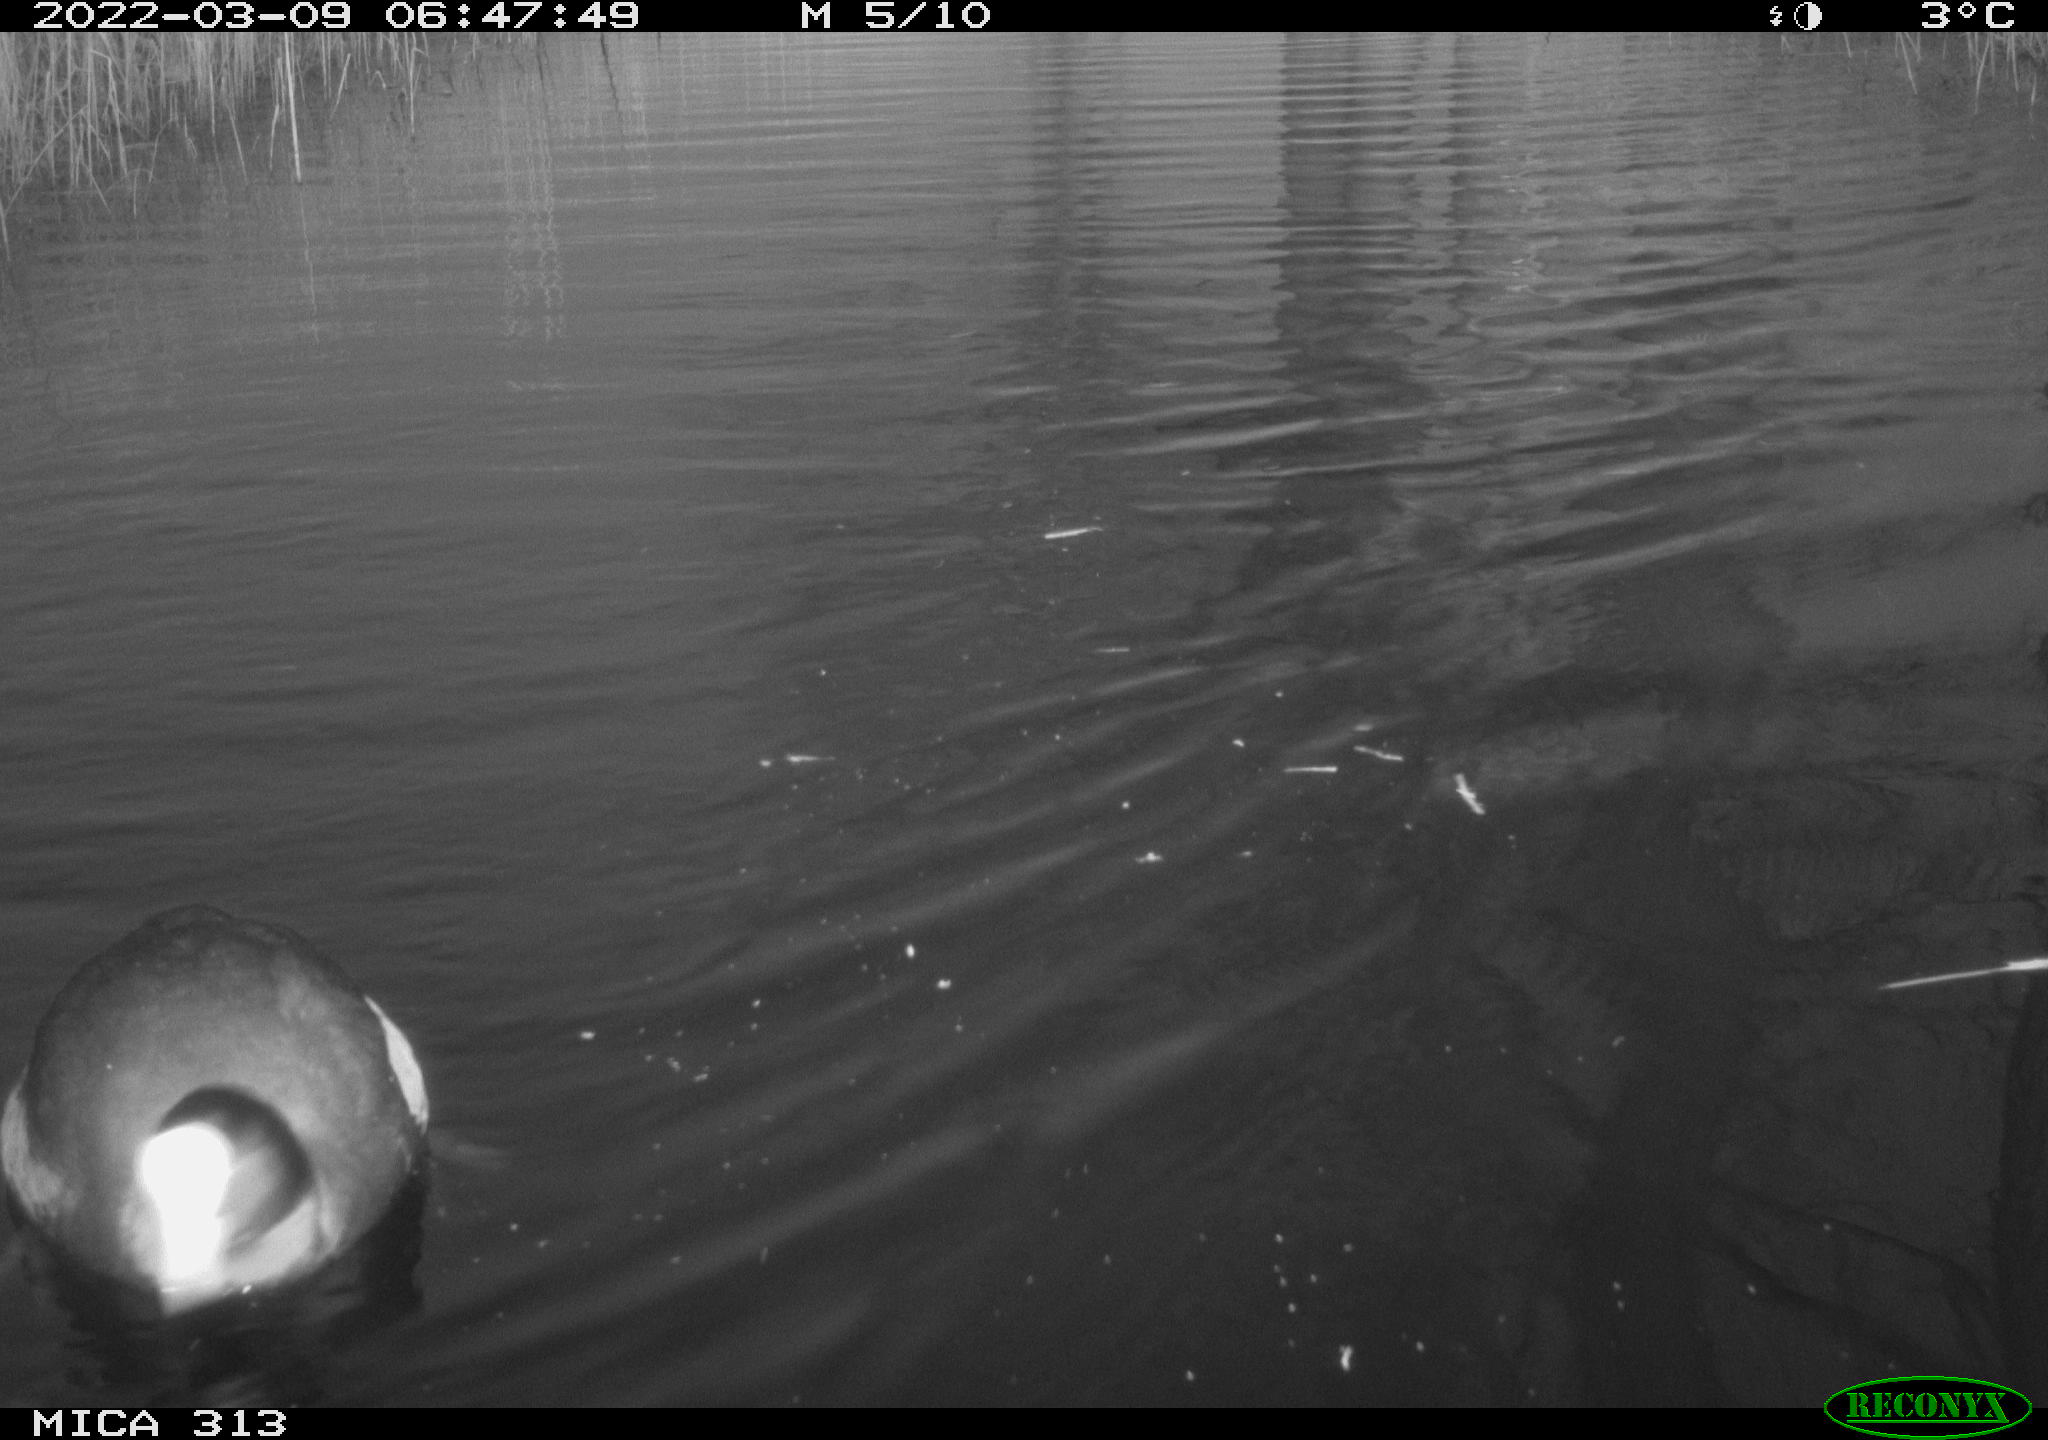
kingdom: Animalia
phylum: Chordata
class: Aves
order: Gruiformes
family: Rallidae
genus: Fulica
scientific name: Fulica atra
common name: Eurasian coot
